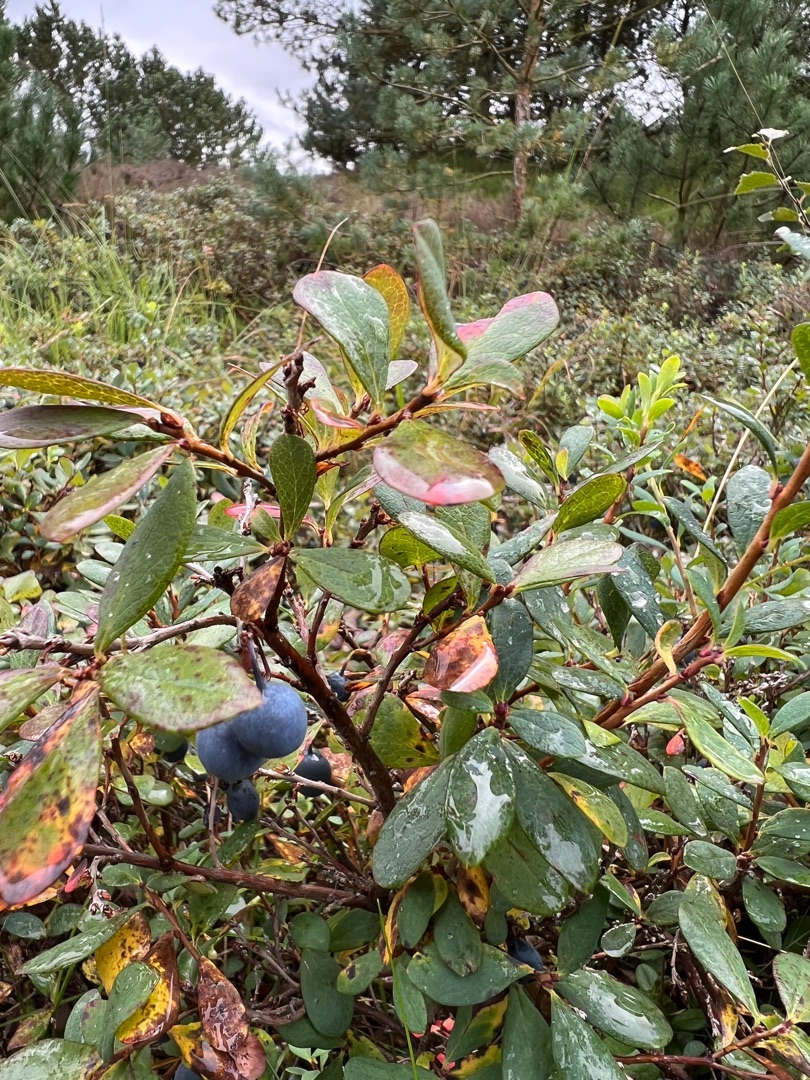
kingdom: Plantae
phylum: Tracheophyta
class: Magnoliopsida
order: Ericales
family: Ericaceae
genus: Vaccinium
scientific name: Vaccinium uliginosum
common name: Mose-bølle
